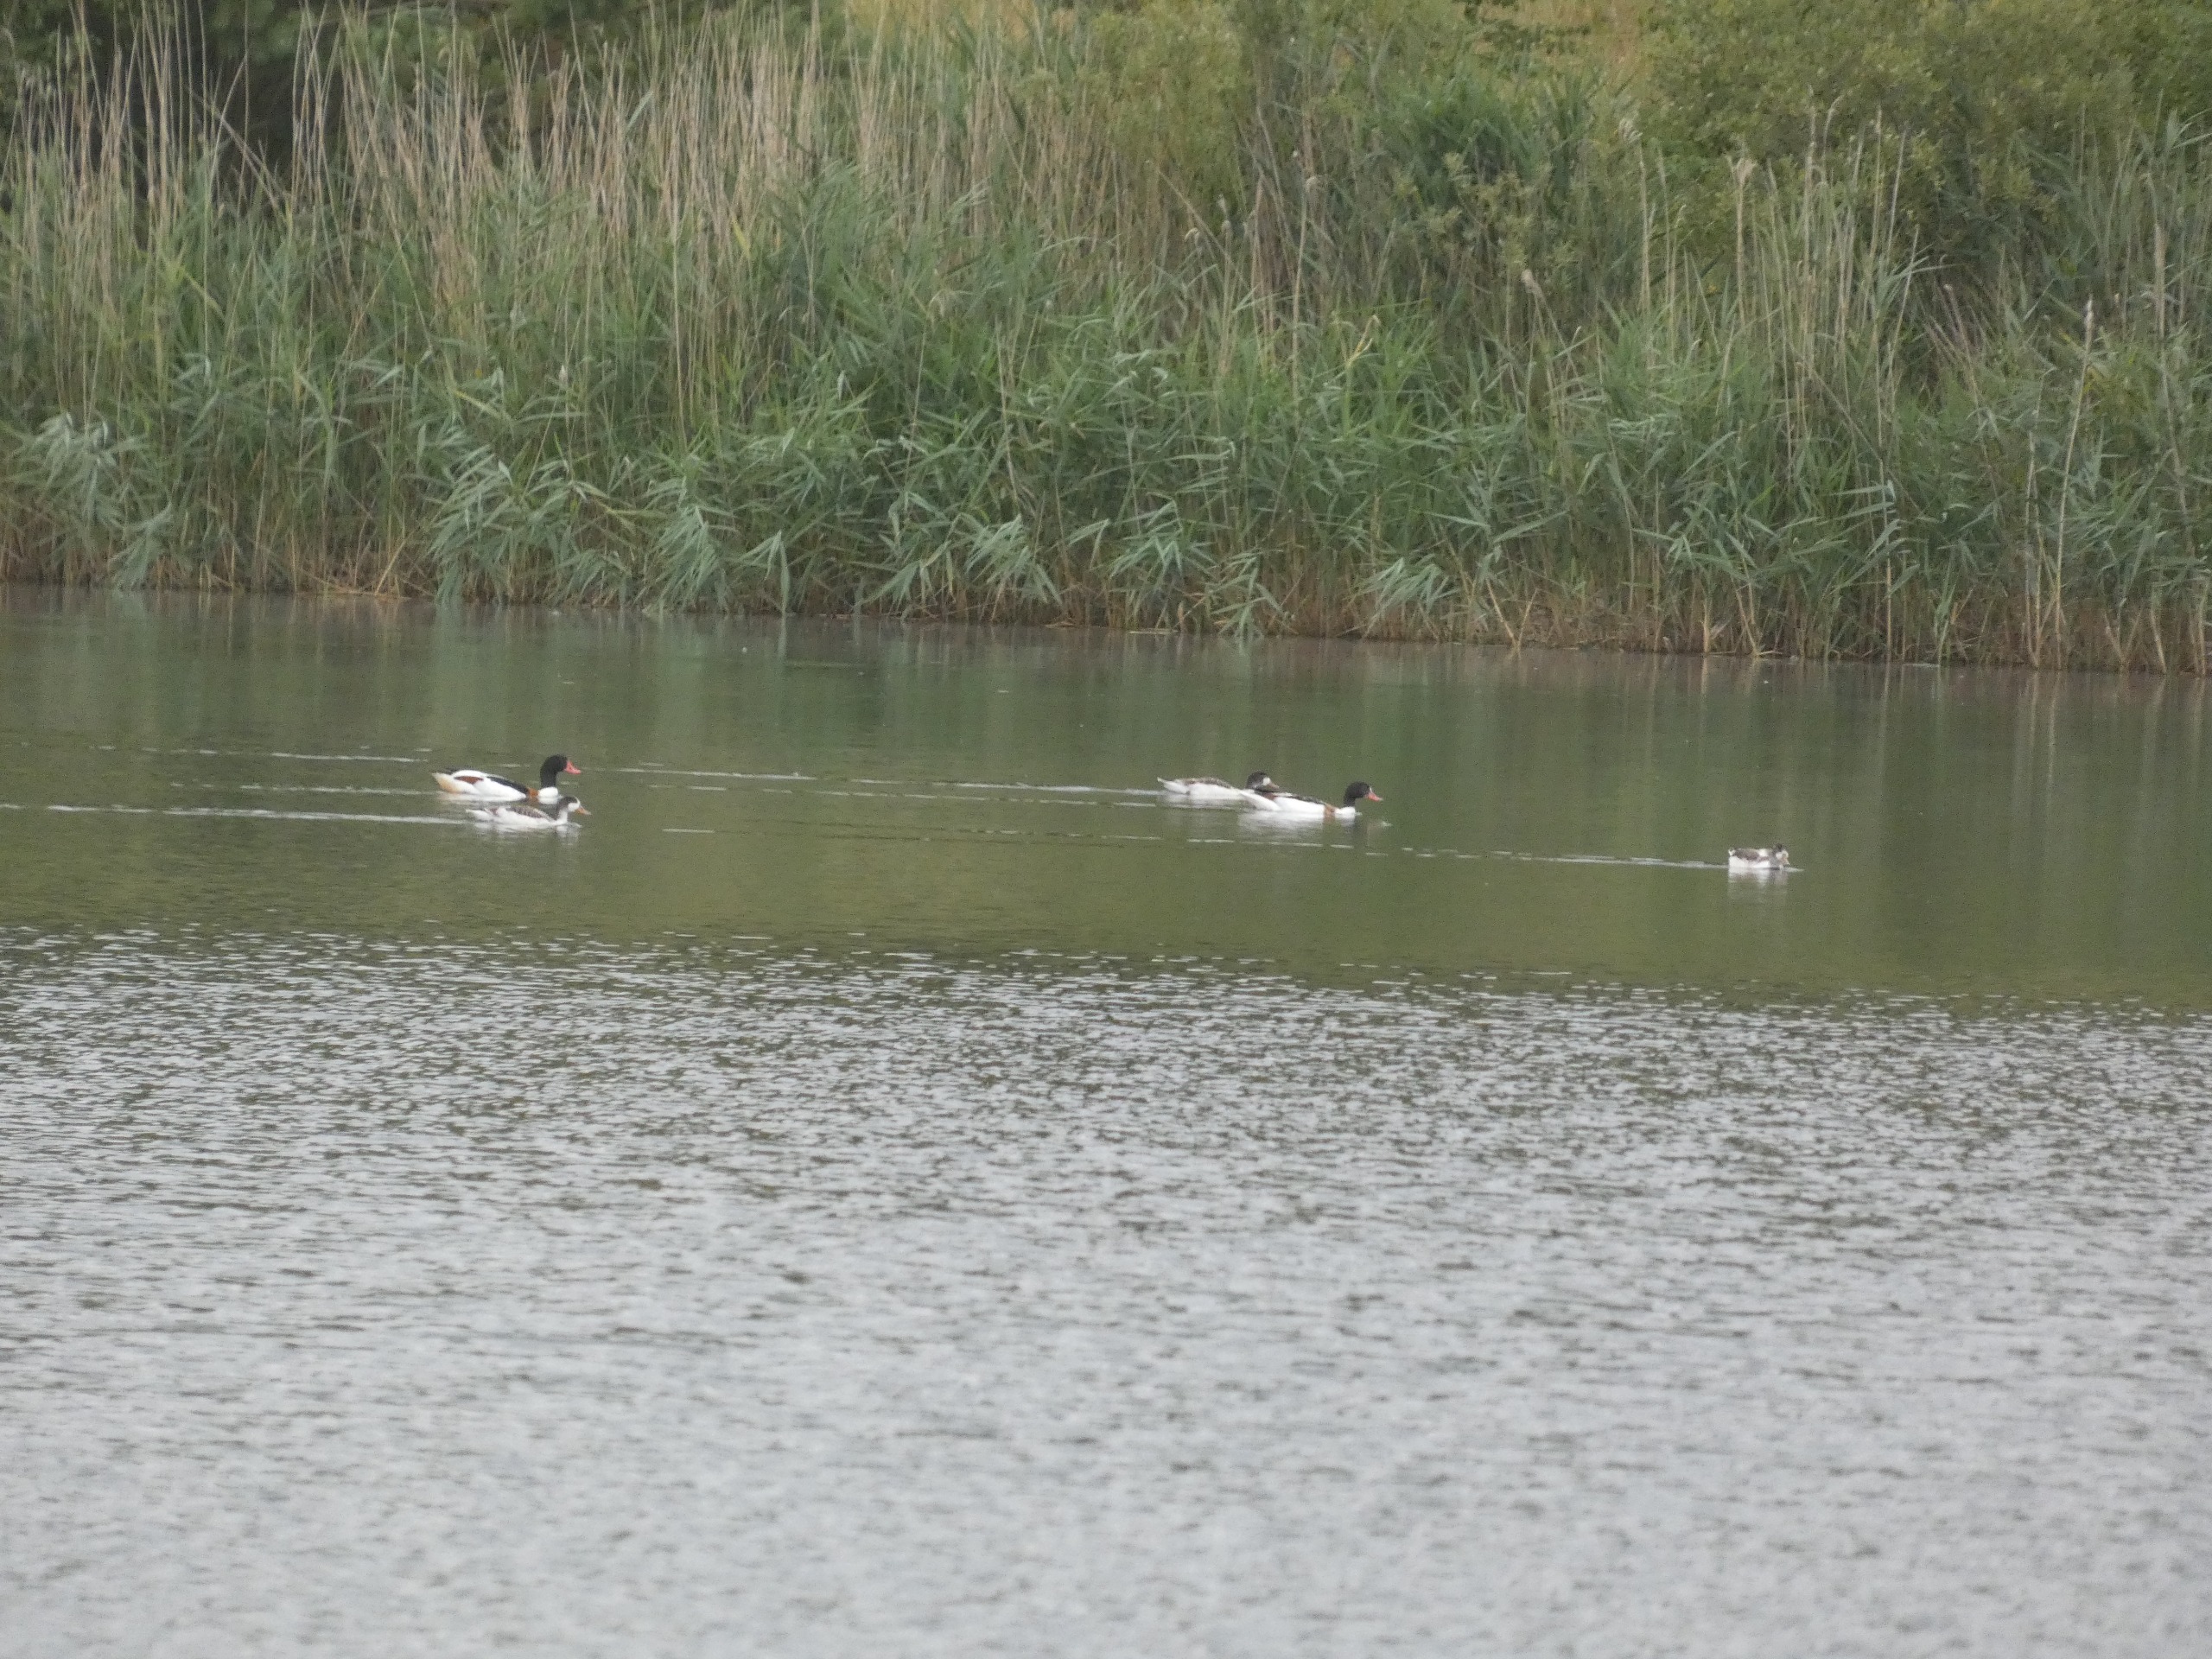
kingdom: Animalia
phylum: Chordata
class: Aves
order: Anseriformes
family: Anatidae
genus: Tadorna
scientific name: Tadorna tadorna
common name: Gravand
